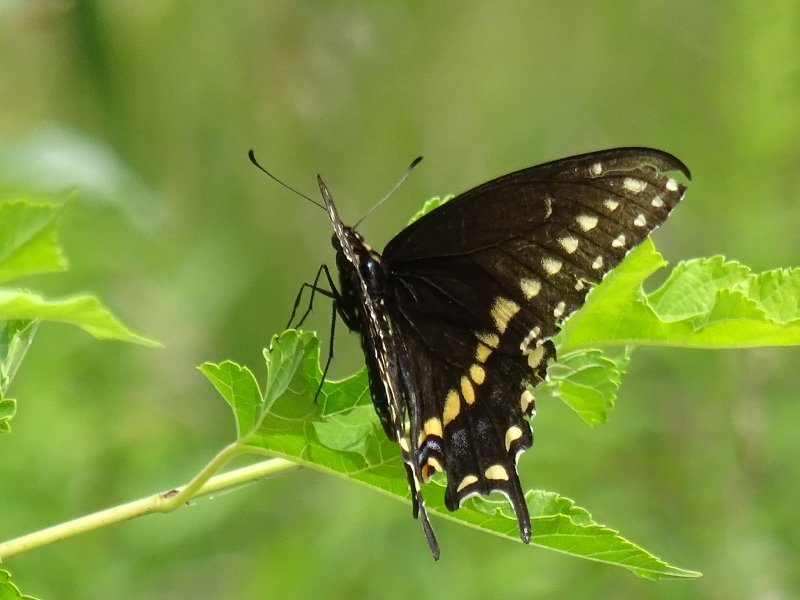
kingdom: Animalia
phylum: Arthropoda
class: Insecta
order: Lepidoptera
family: Papilionidae
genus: Papilio
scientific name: Papilio polyxenes
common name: Black Swallowtail
